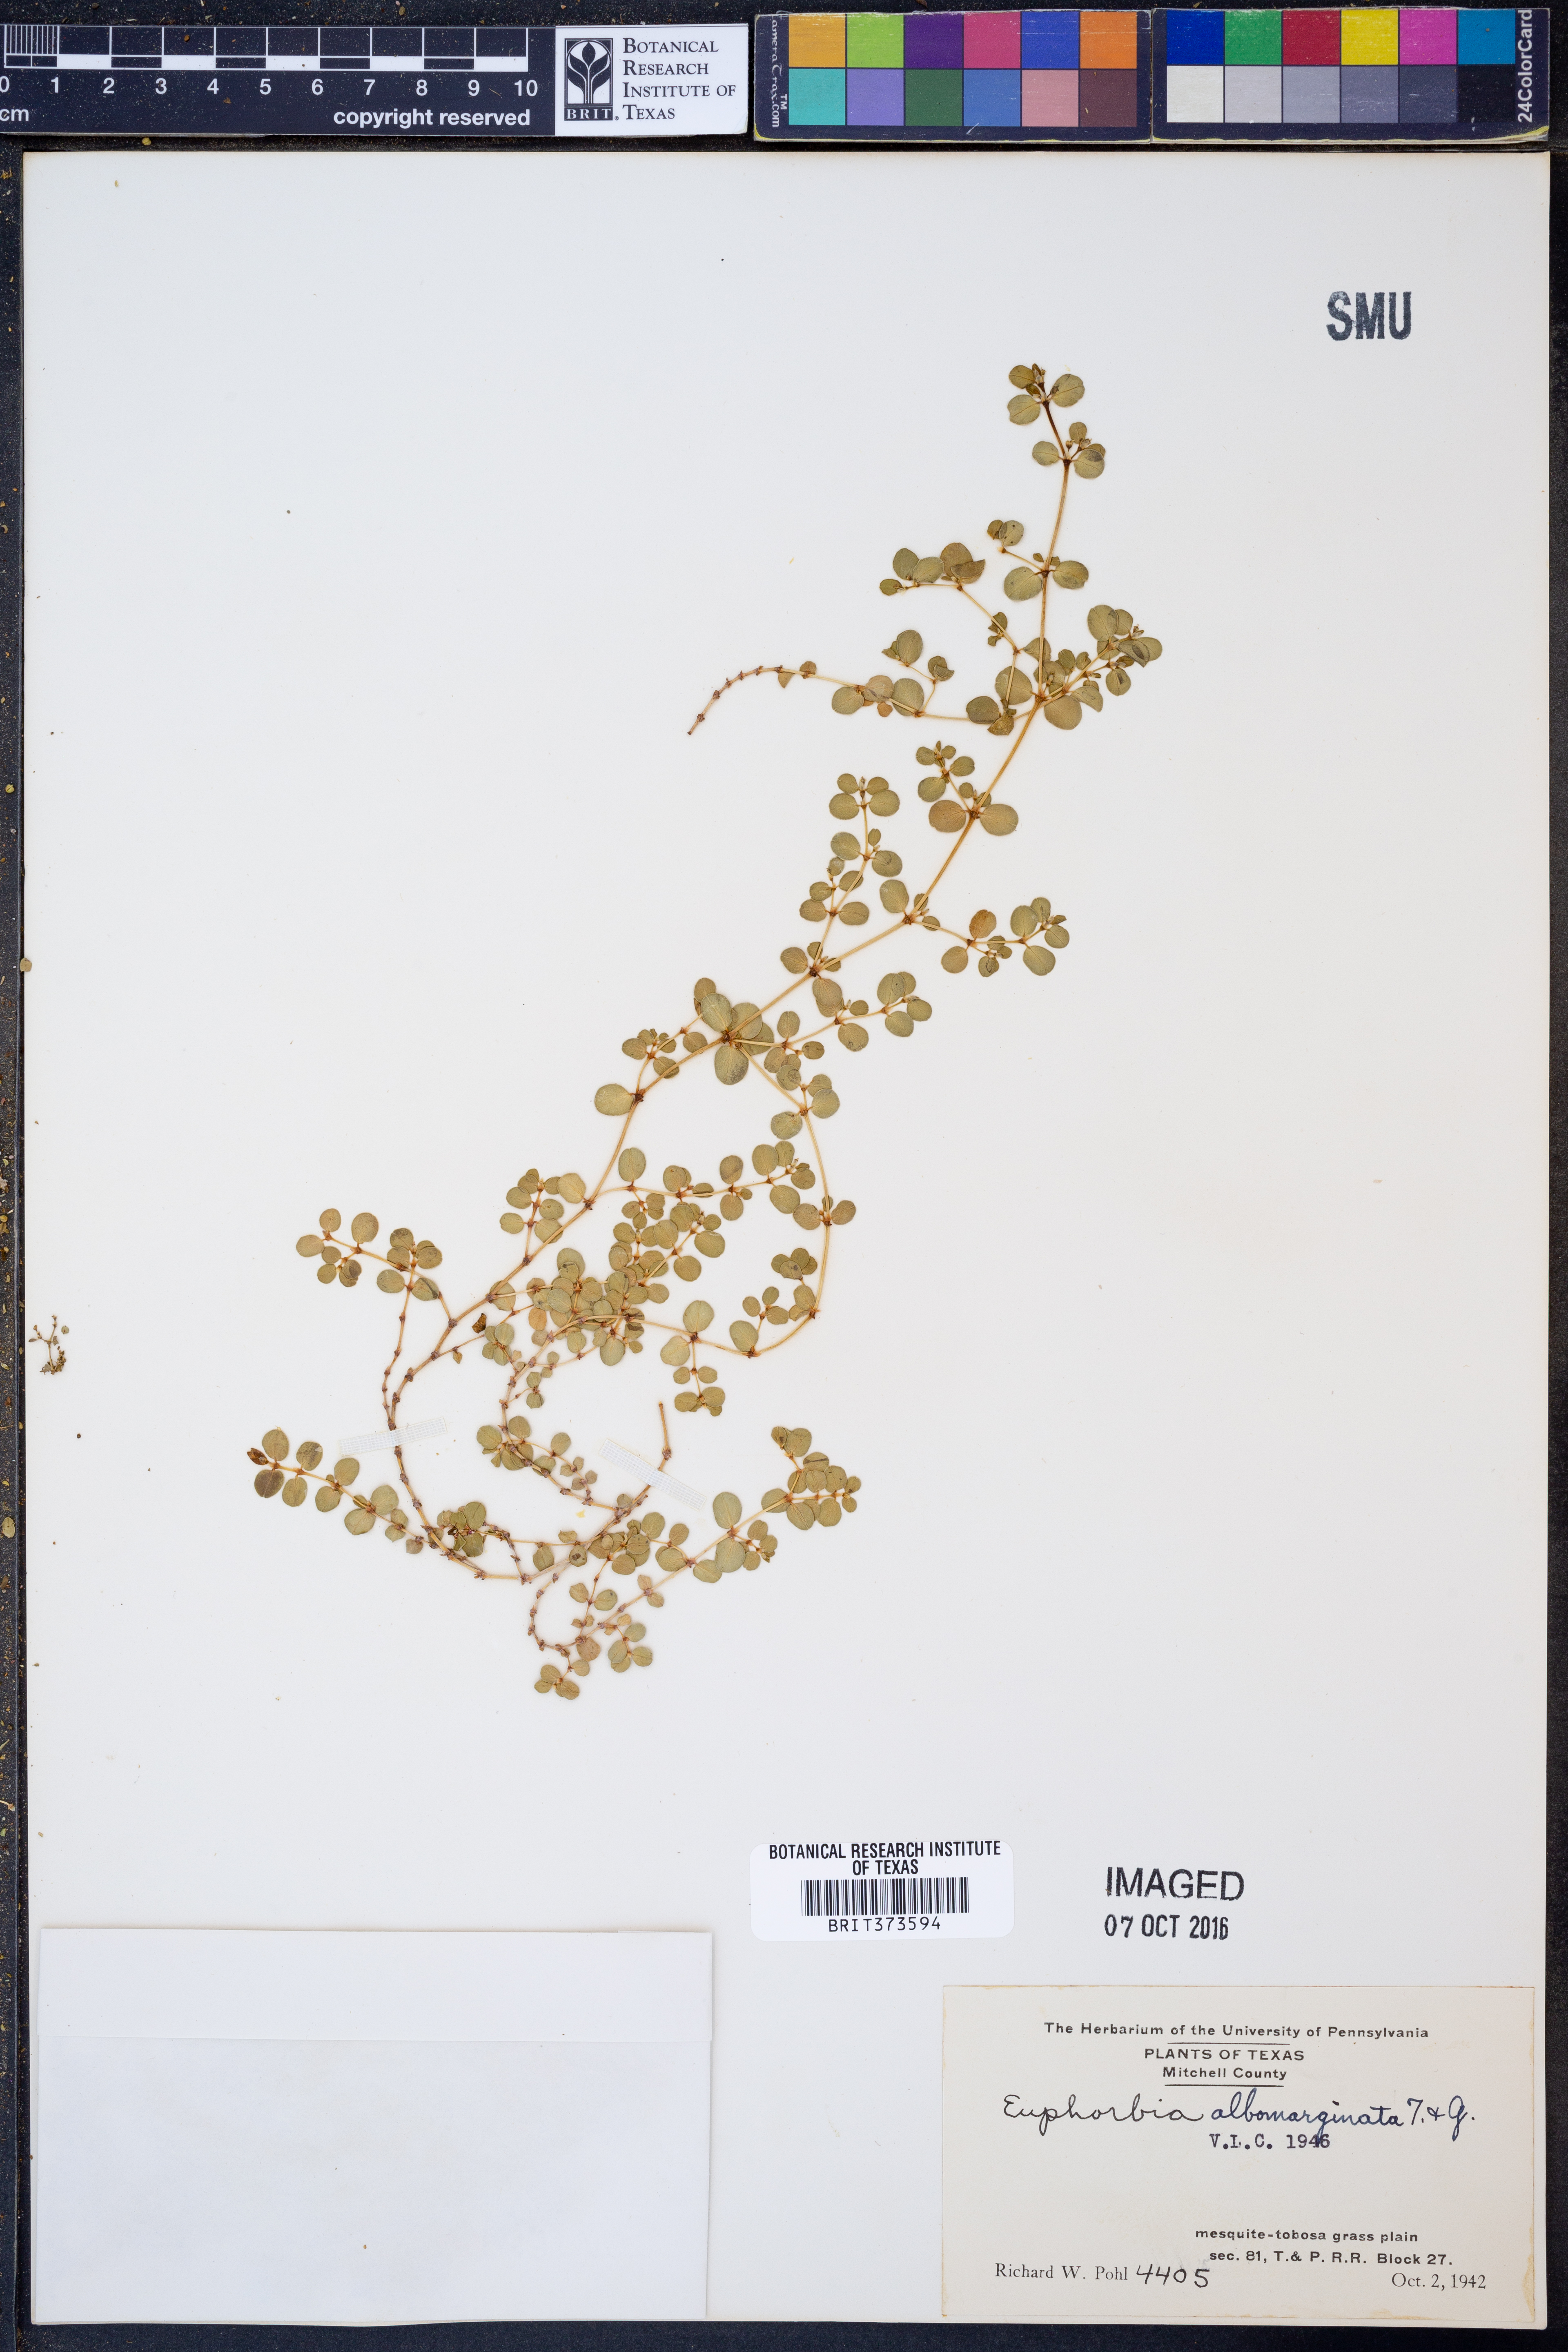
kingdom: Plantae
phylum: Tracheophyta
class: Magnoliopsida
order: Malpighiales
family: Euphorbiaceae
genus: Euphorbia
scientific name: Euphorbia albomarginata
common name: Whitemargin sandmat
